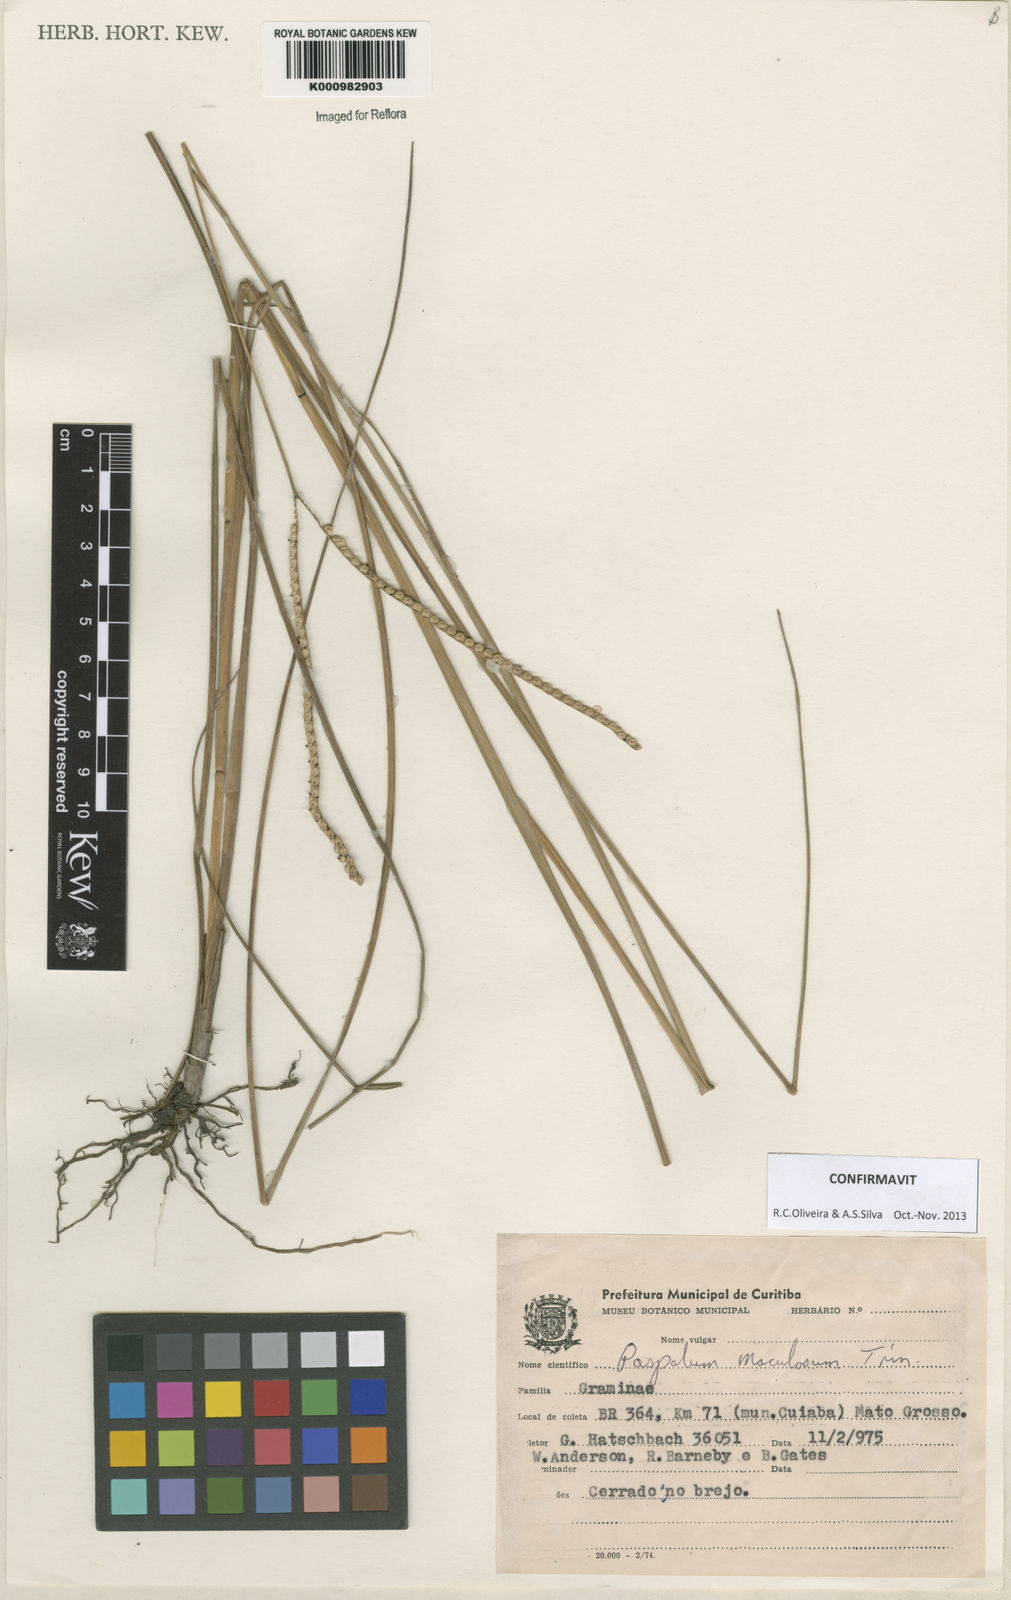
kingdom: Plantae
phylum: Tracheophyta
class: Liliopsida
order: Poales
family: Poaceae
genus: Paspalum
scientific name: Paspalum maculosum
